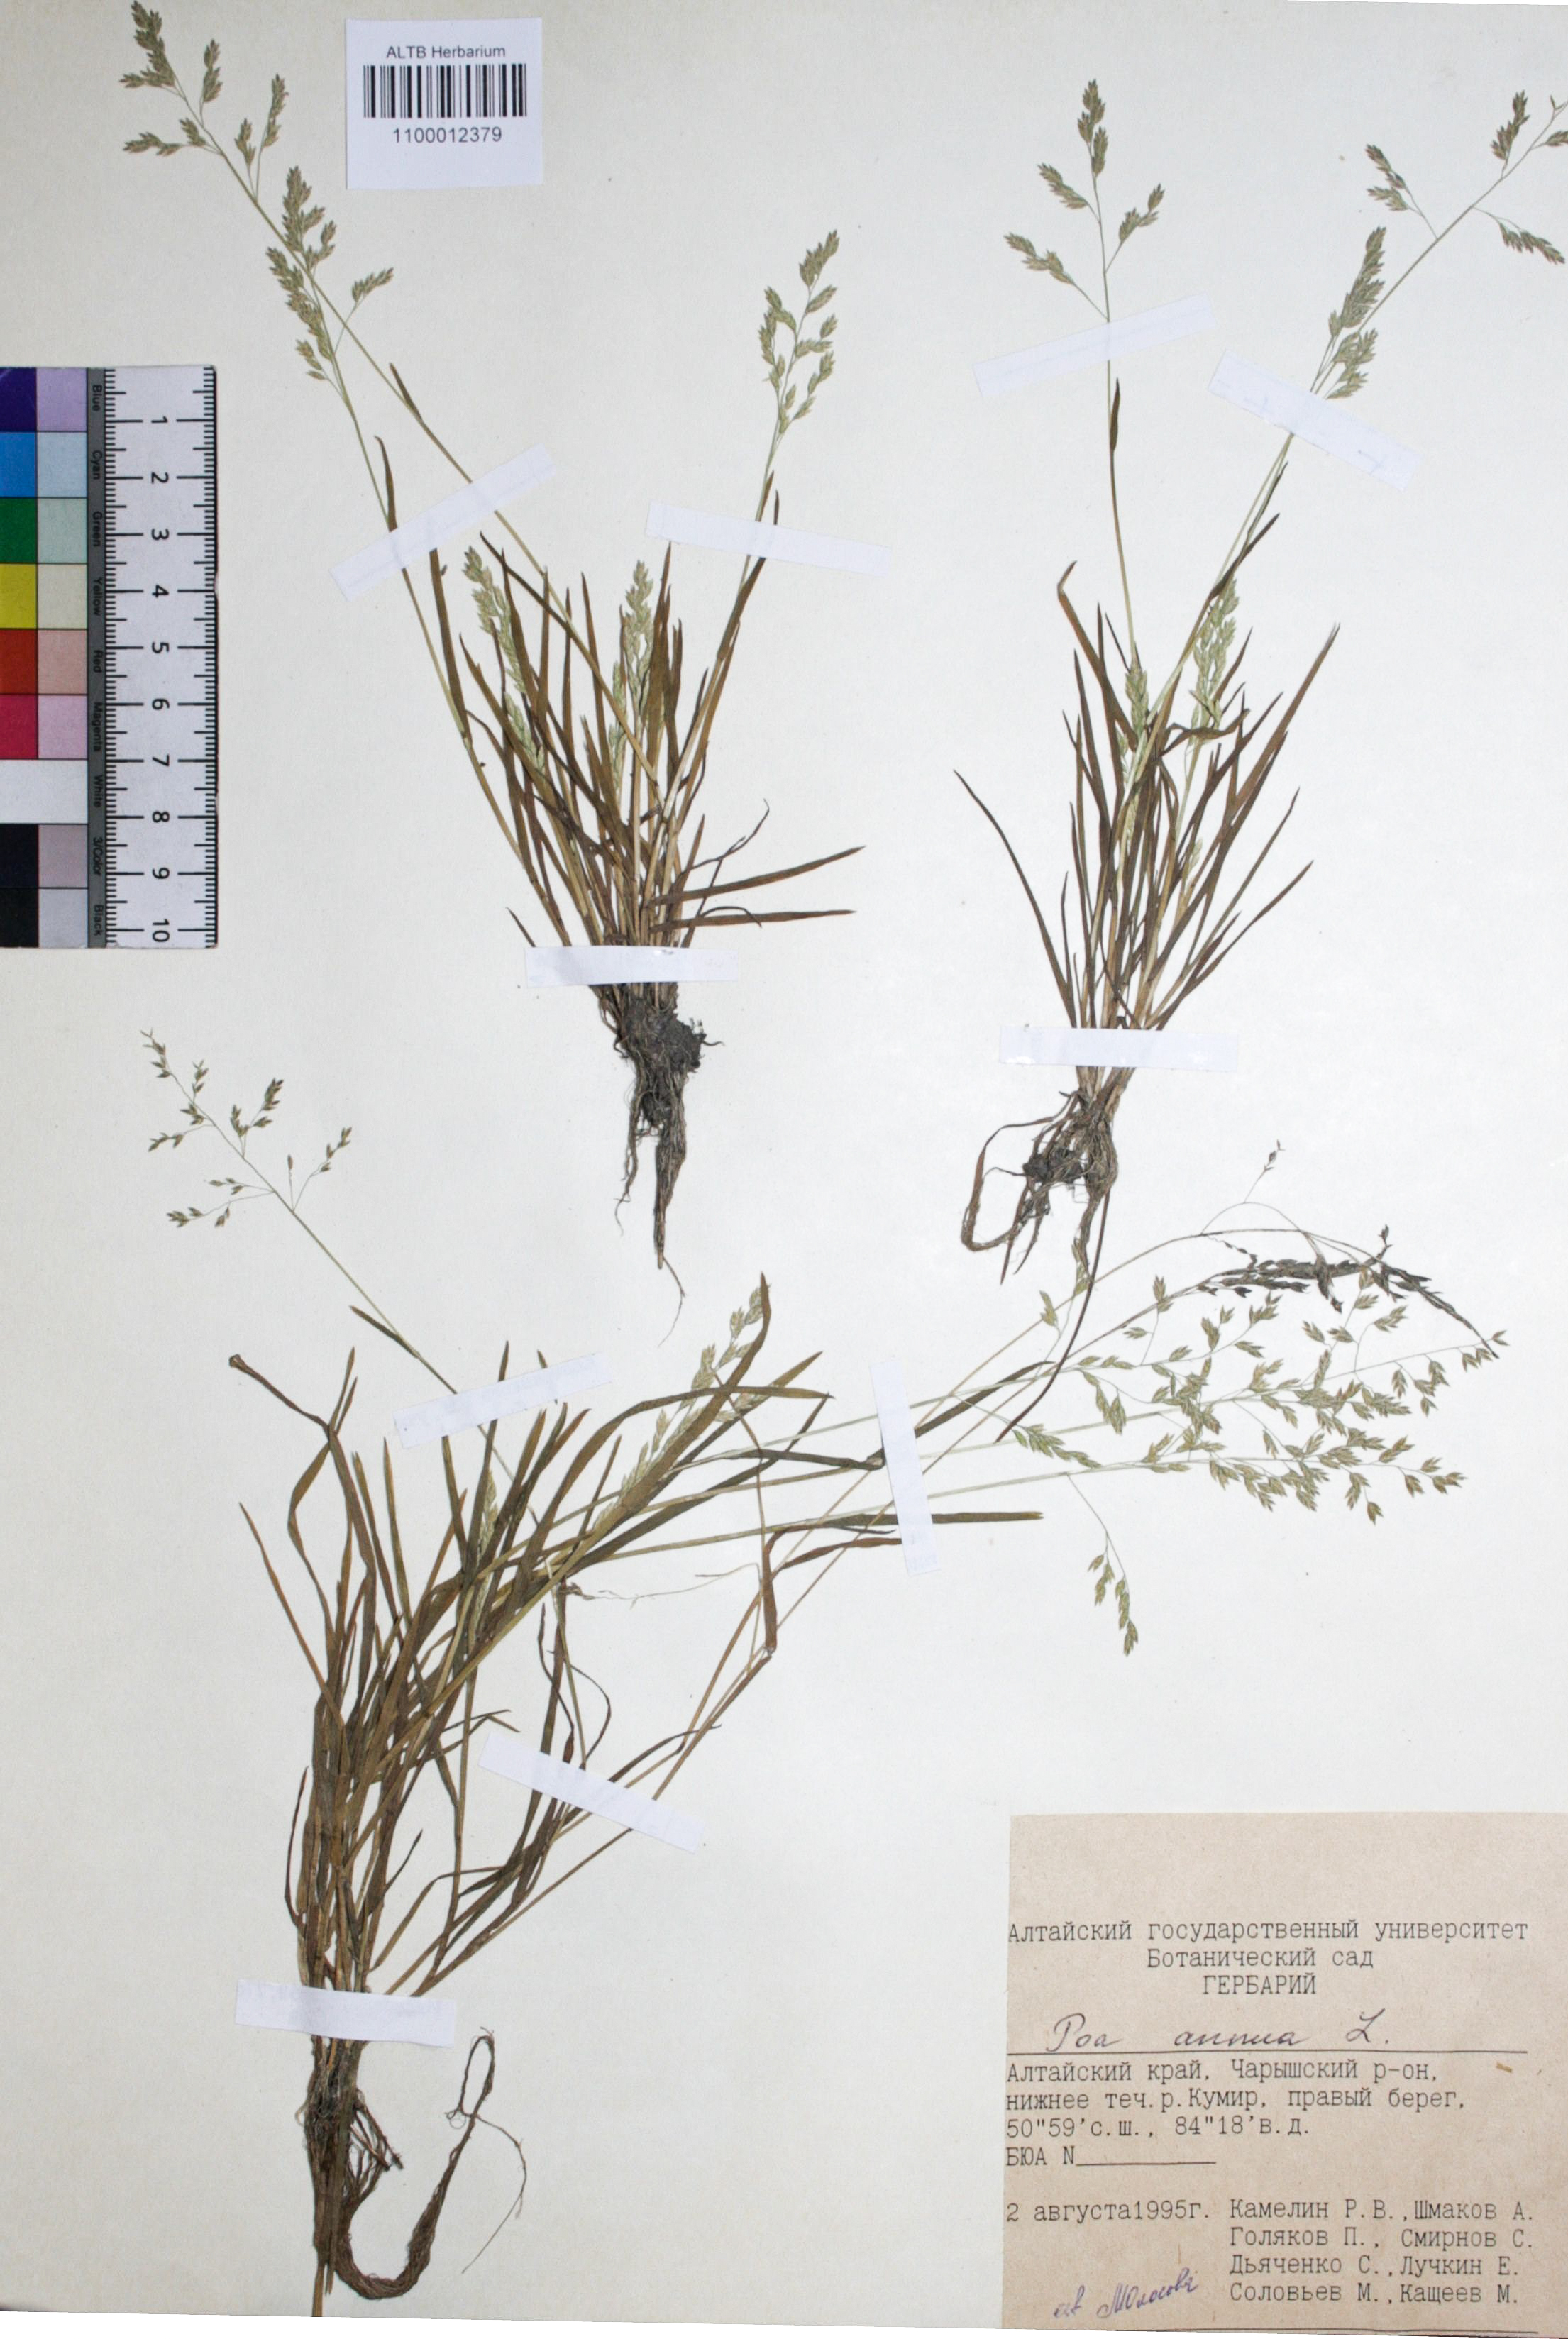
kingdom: Plantae
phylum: Tracheophyta
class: Liliopsida
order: Poales
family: Poaceae
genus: Poa
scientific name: Poa annua
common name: Annual bluegrass
